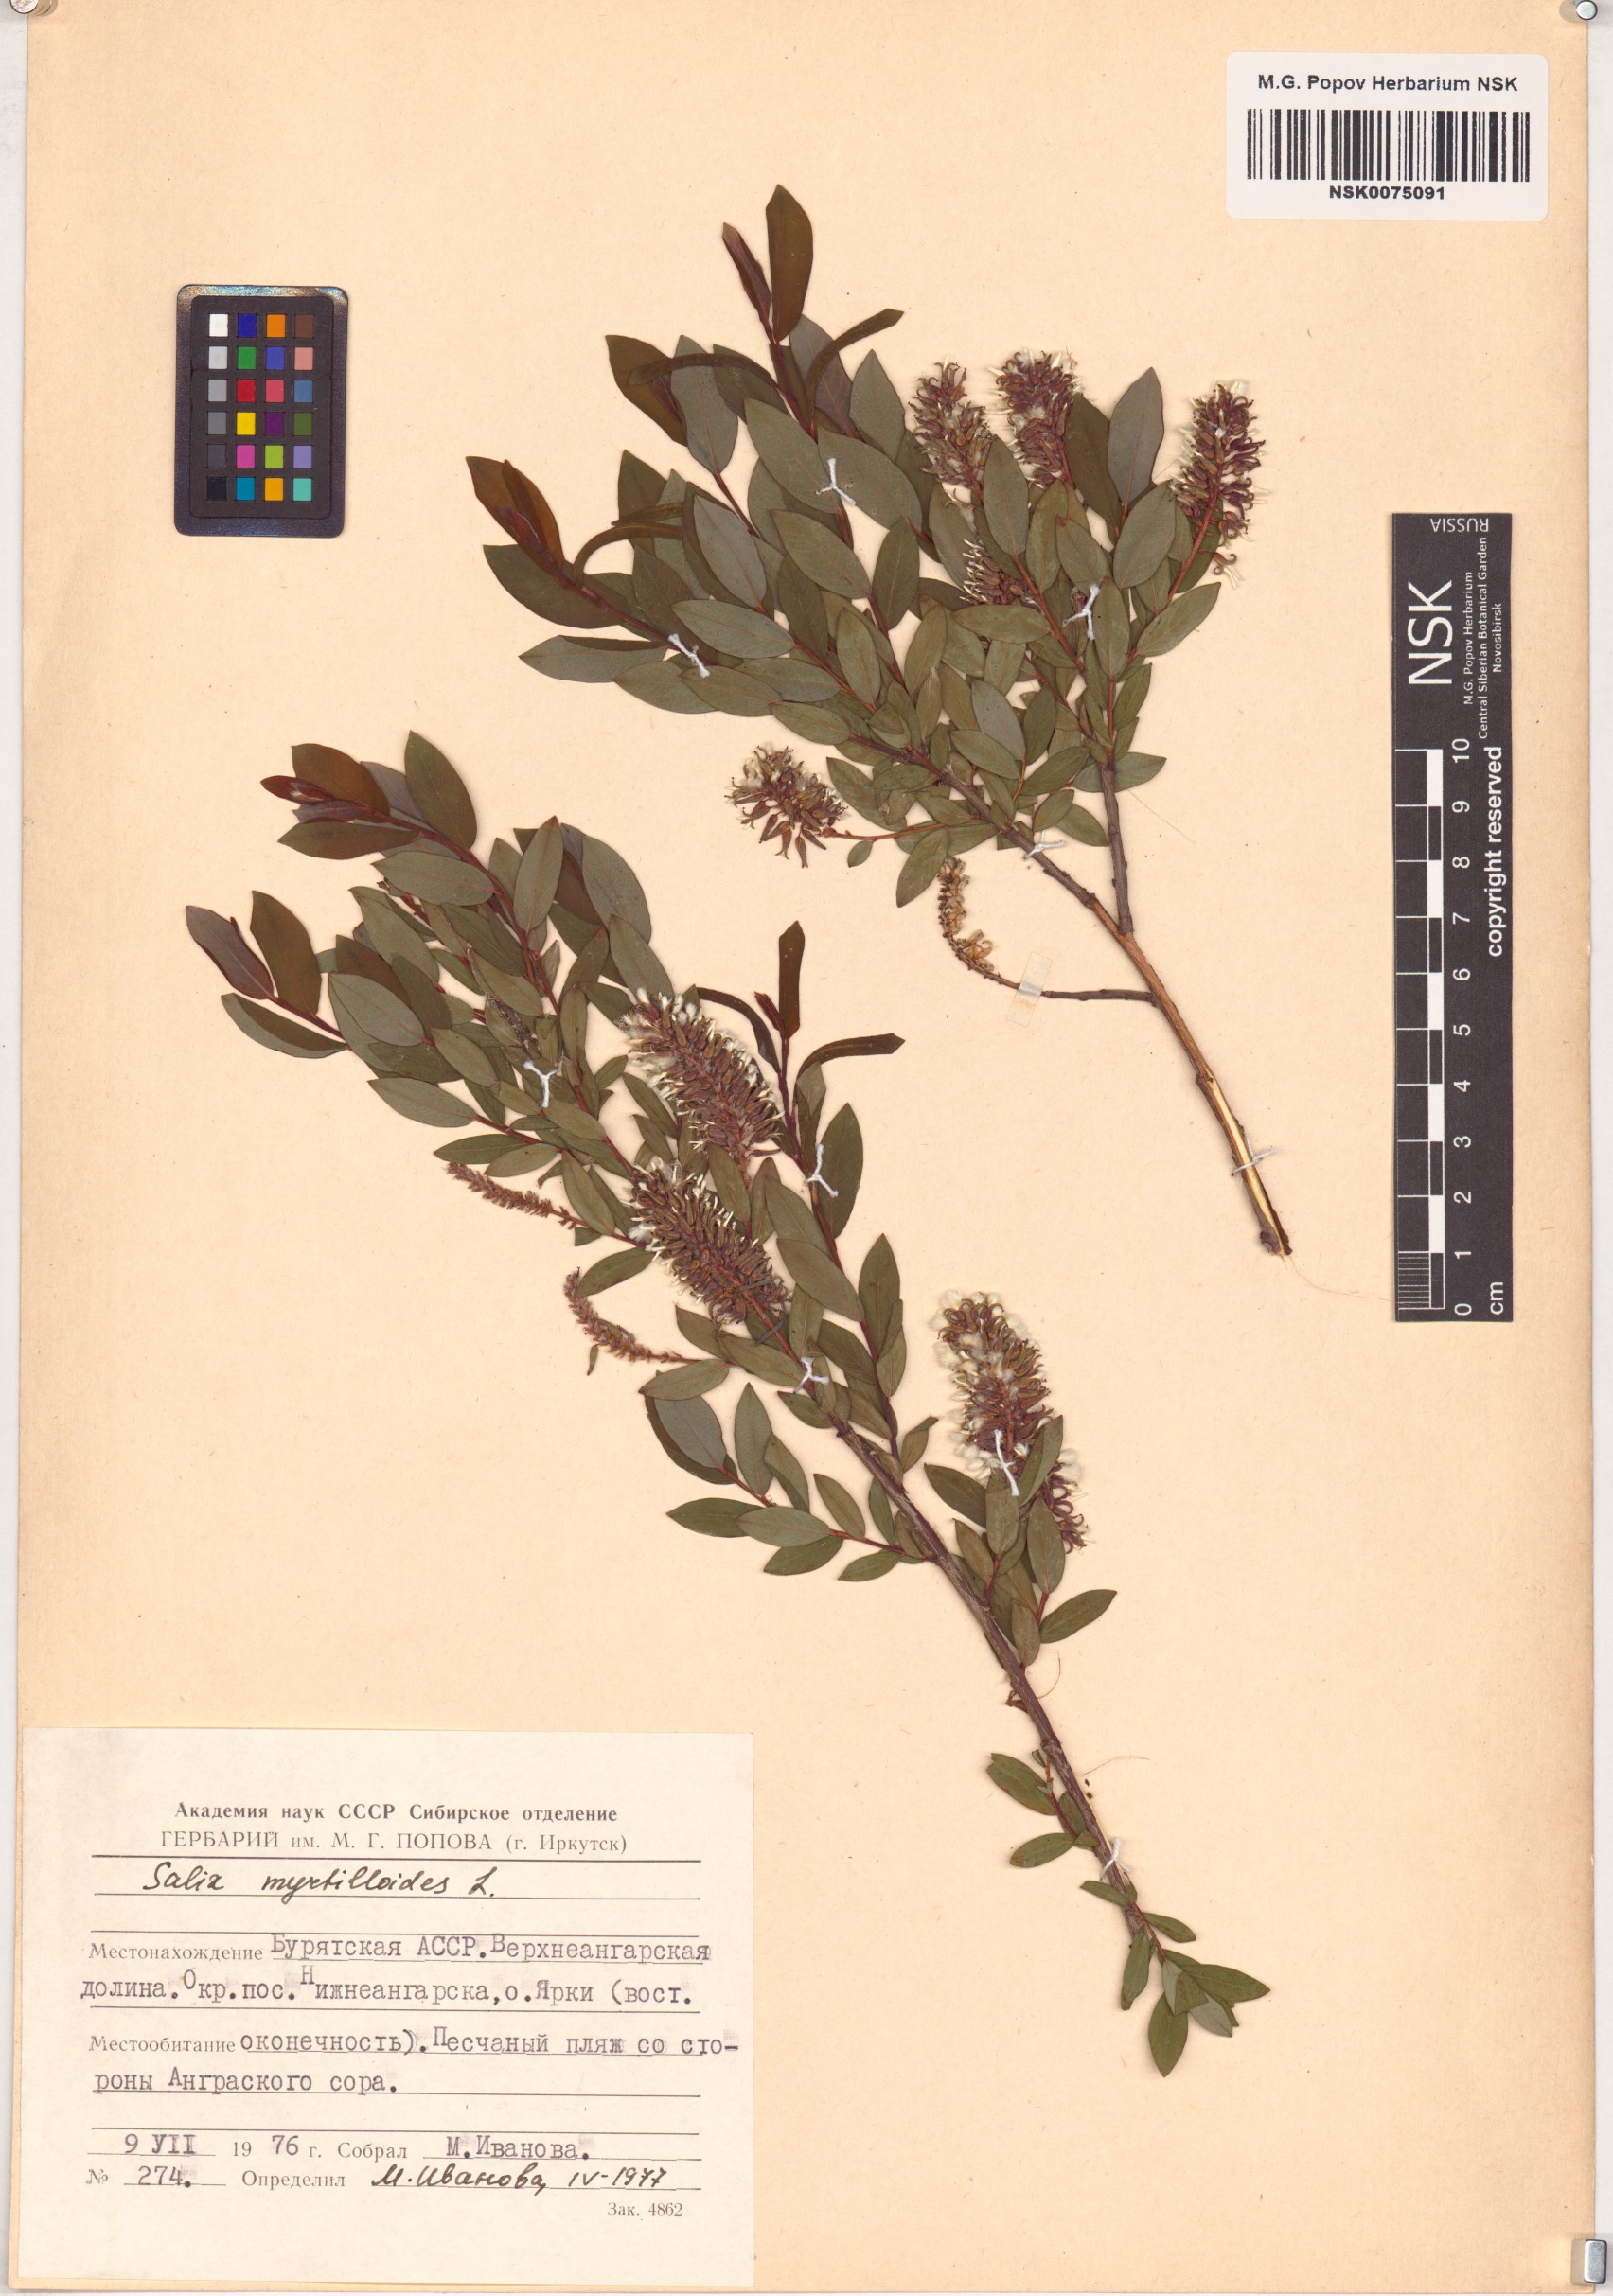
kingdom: Plantae
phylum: Tracheophyta
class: Magnoliopsida
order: Malpighiales
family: Salicaceae
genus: Salix
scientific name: Salix myrtilloides
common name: Myrtle-leaved willow
